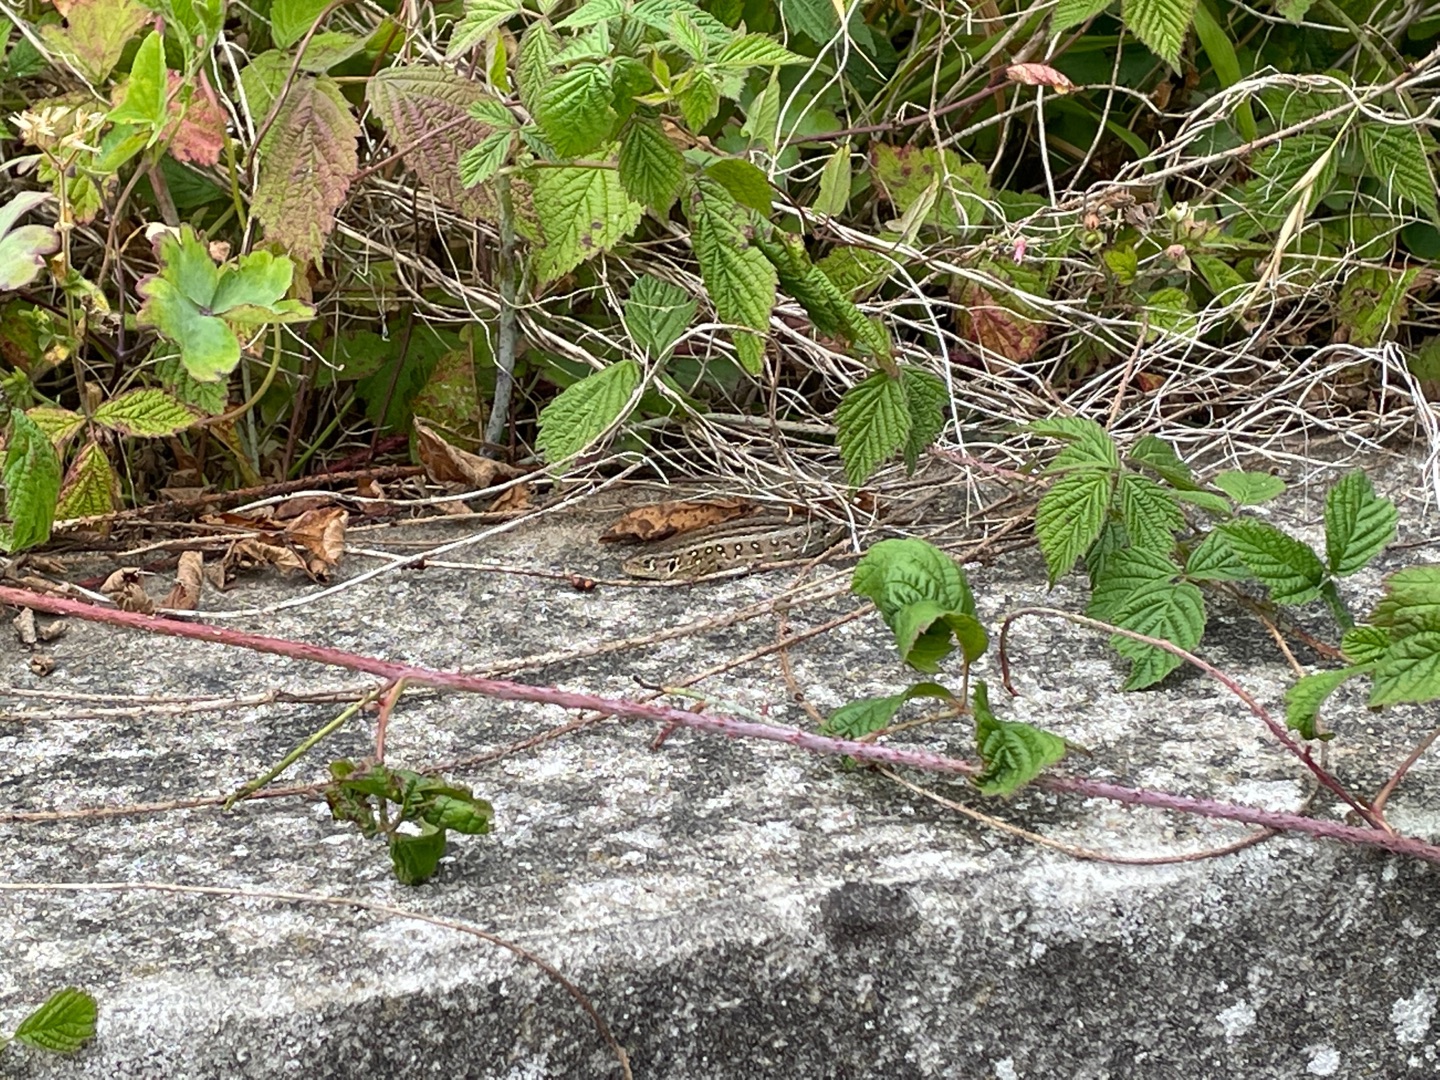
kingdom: Animalia
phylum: Chordata
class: Squamata
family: Lacertidae
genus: Lacerta
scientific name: Lacerta agilis
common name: Markfirben
